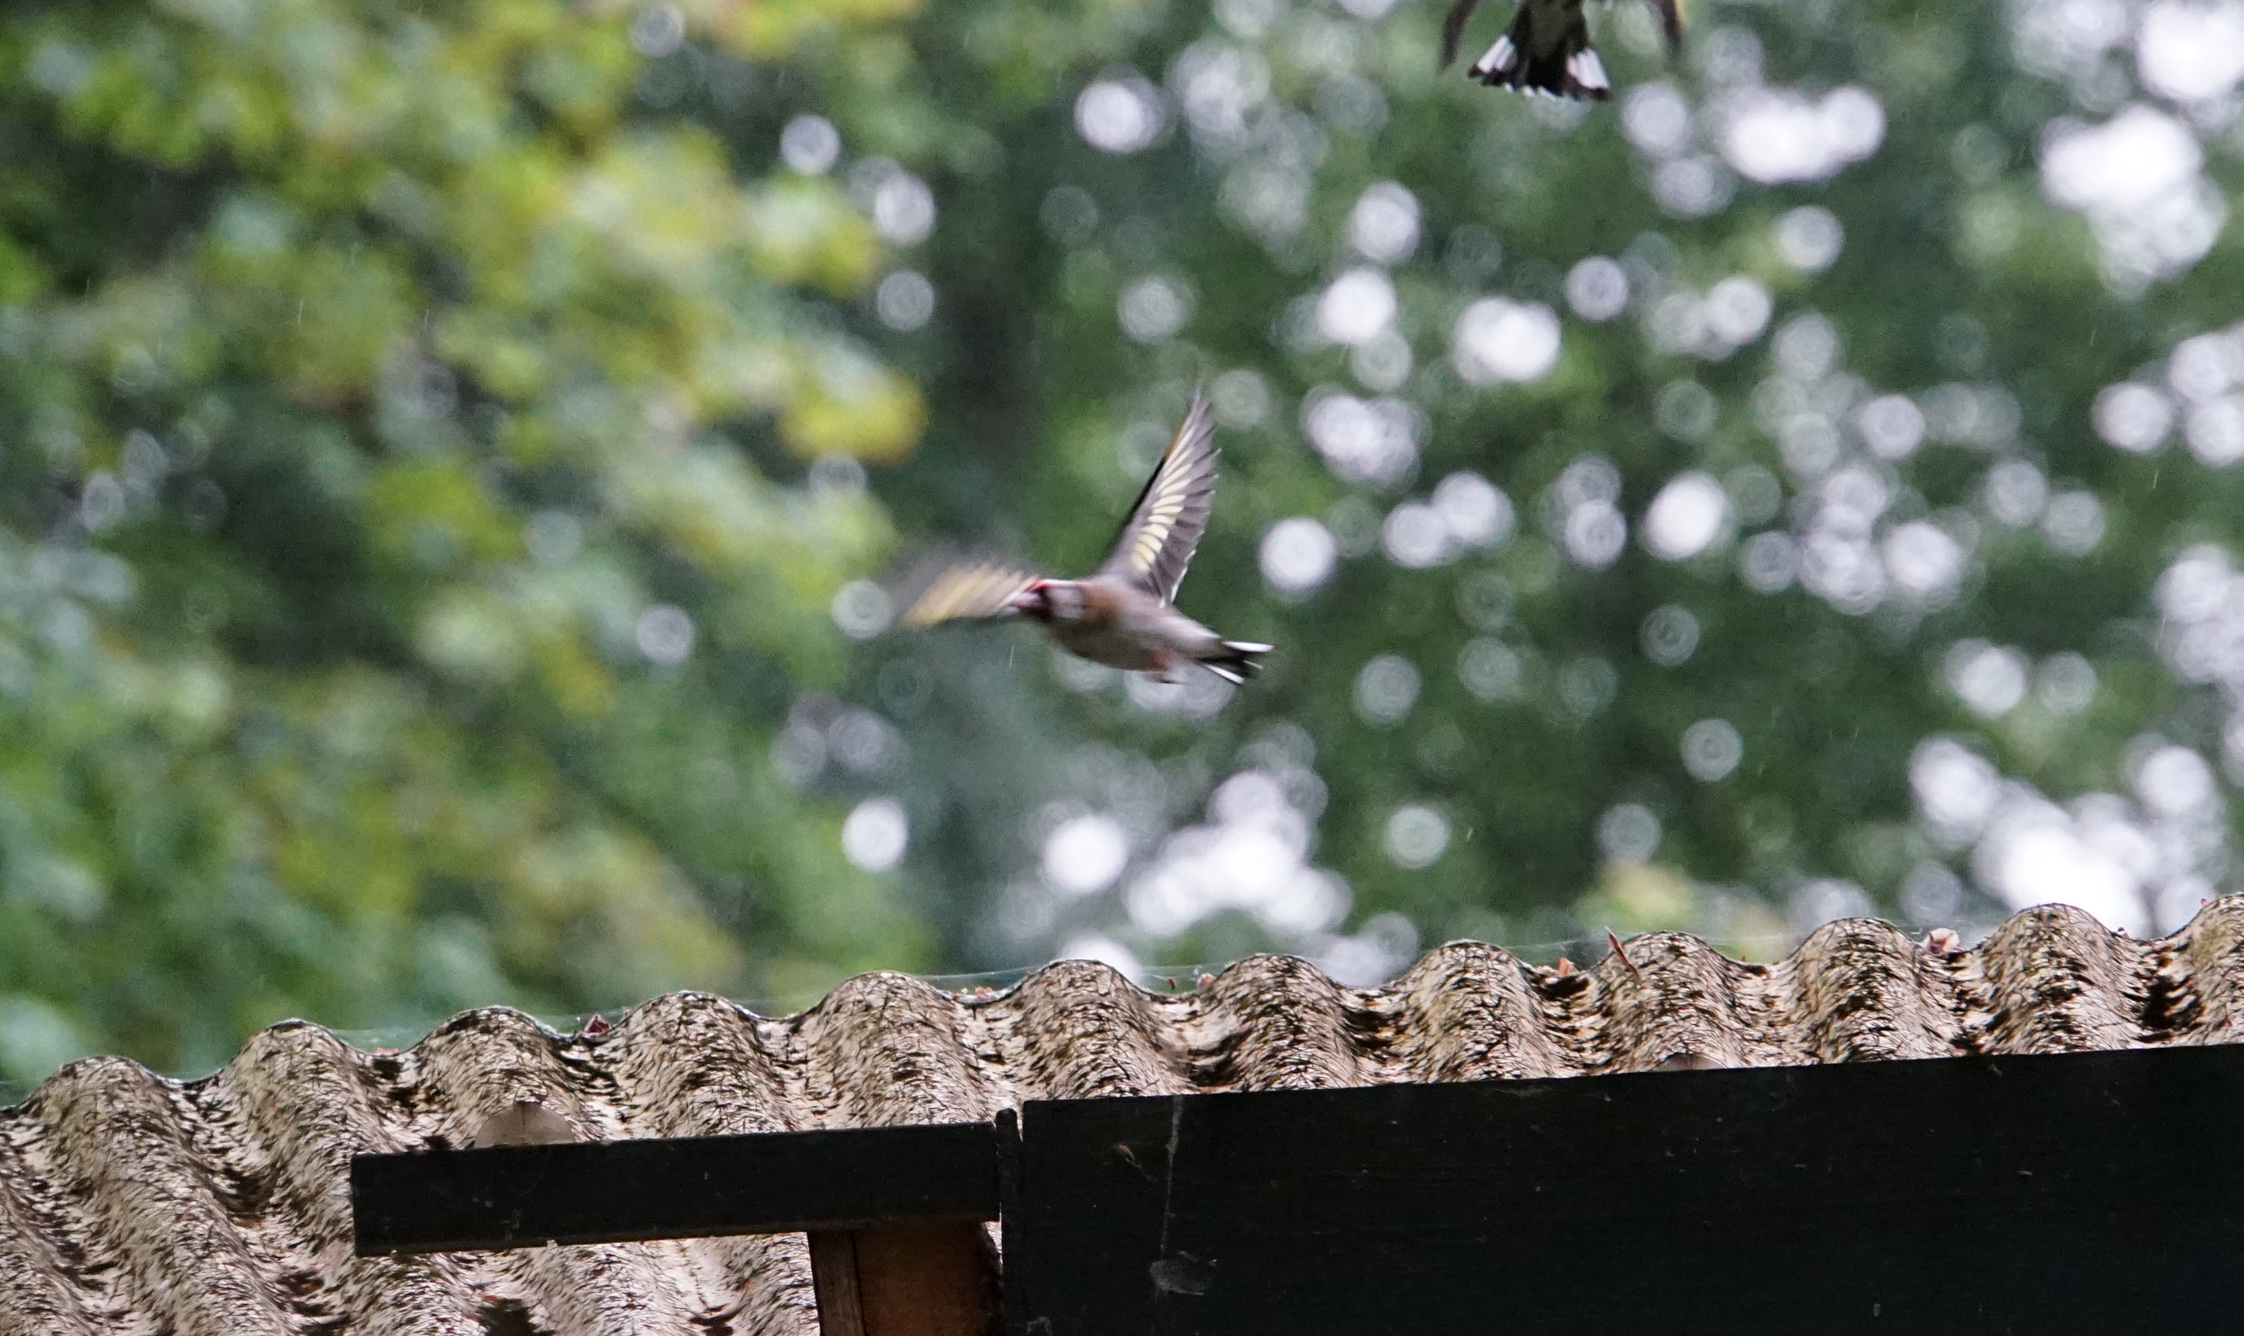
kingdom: Animalia
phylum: Chordata
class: Aves
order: Passeriformes
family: Fringillidae
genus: Carduelis
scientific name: Carduelis carduelis
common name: European goldfinch
